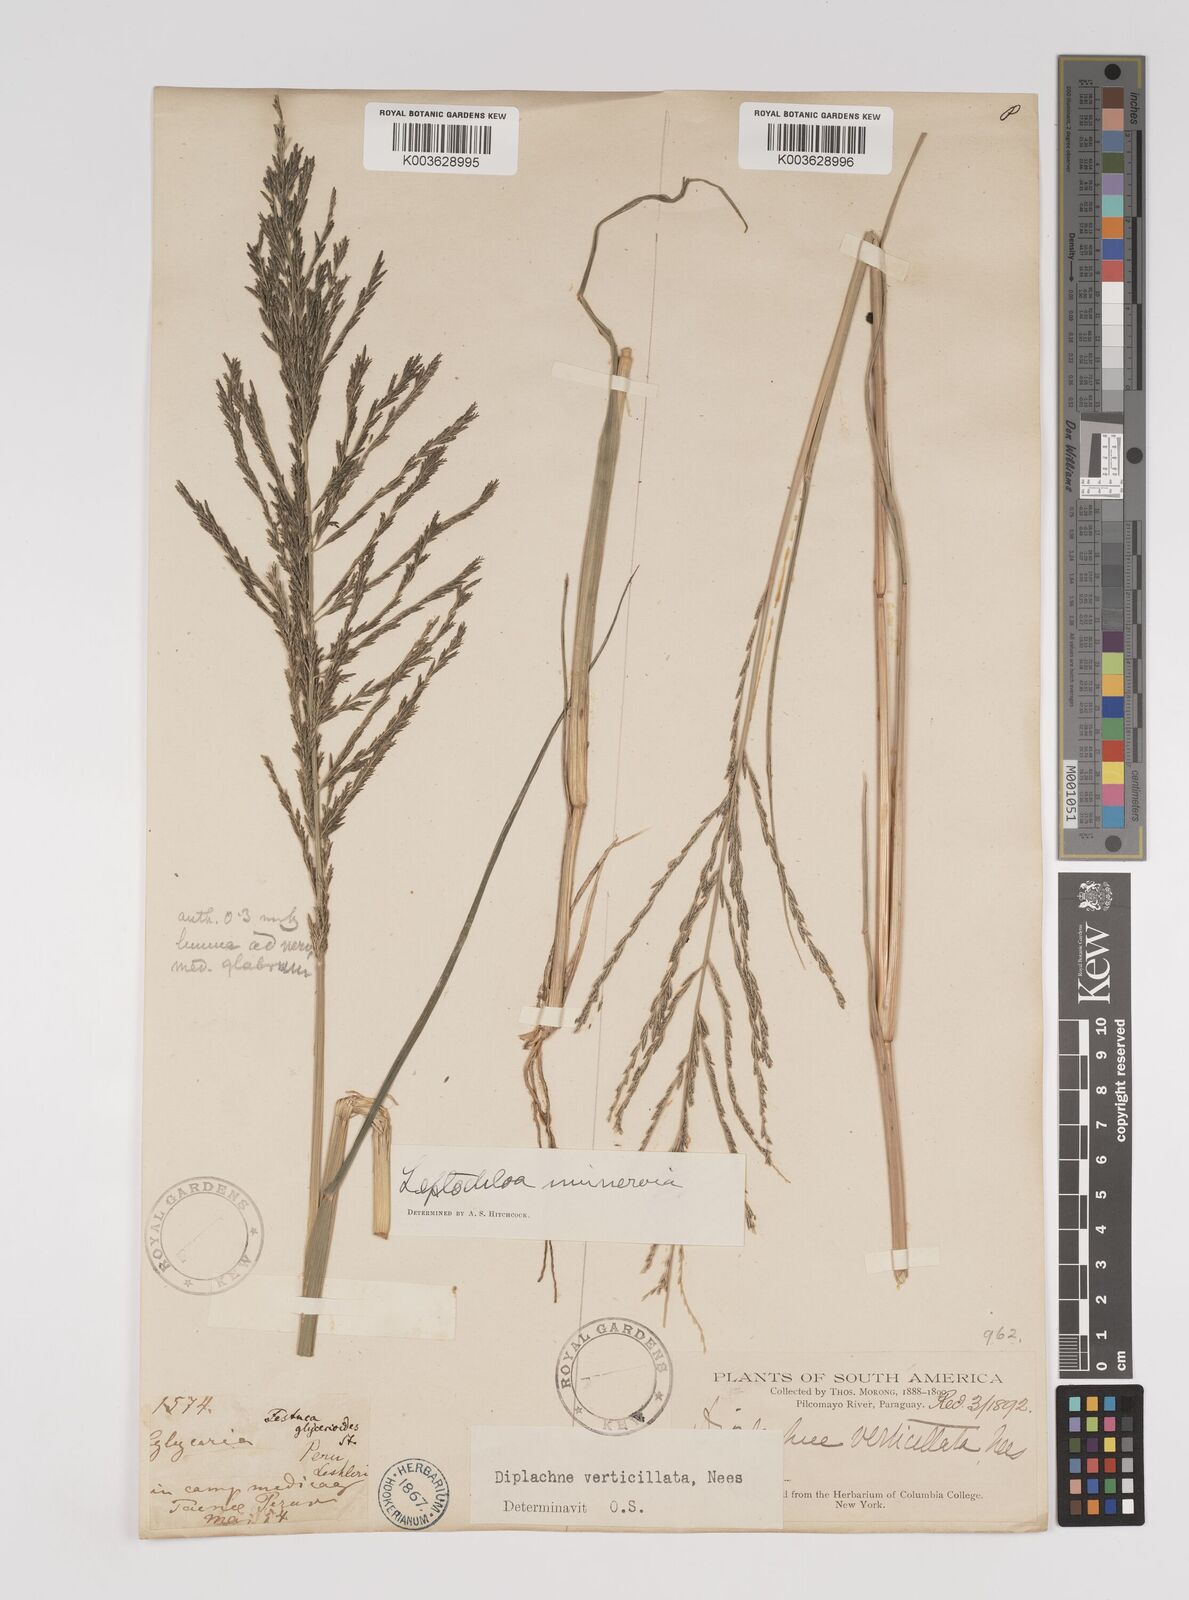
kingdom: Plantae
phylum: Tracheophyta
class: Liliopsida
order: Poales
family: Poaceae
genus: Diplachne
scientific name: Diplachne fusca
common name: Brown beetle grass
